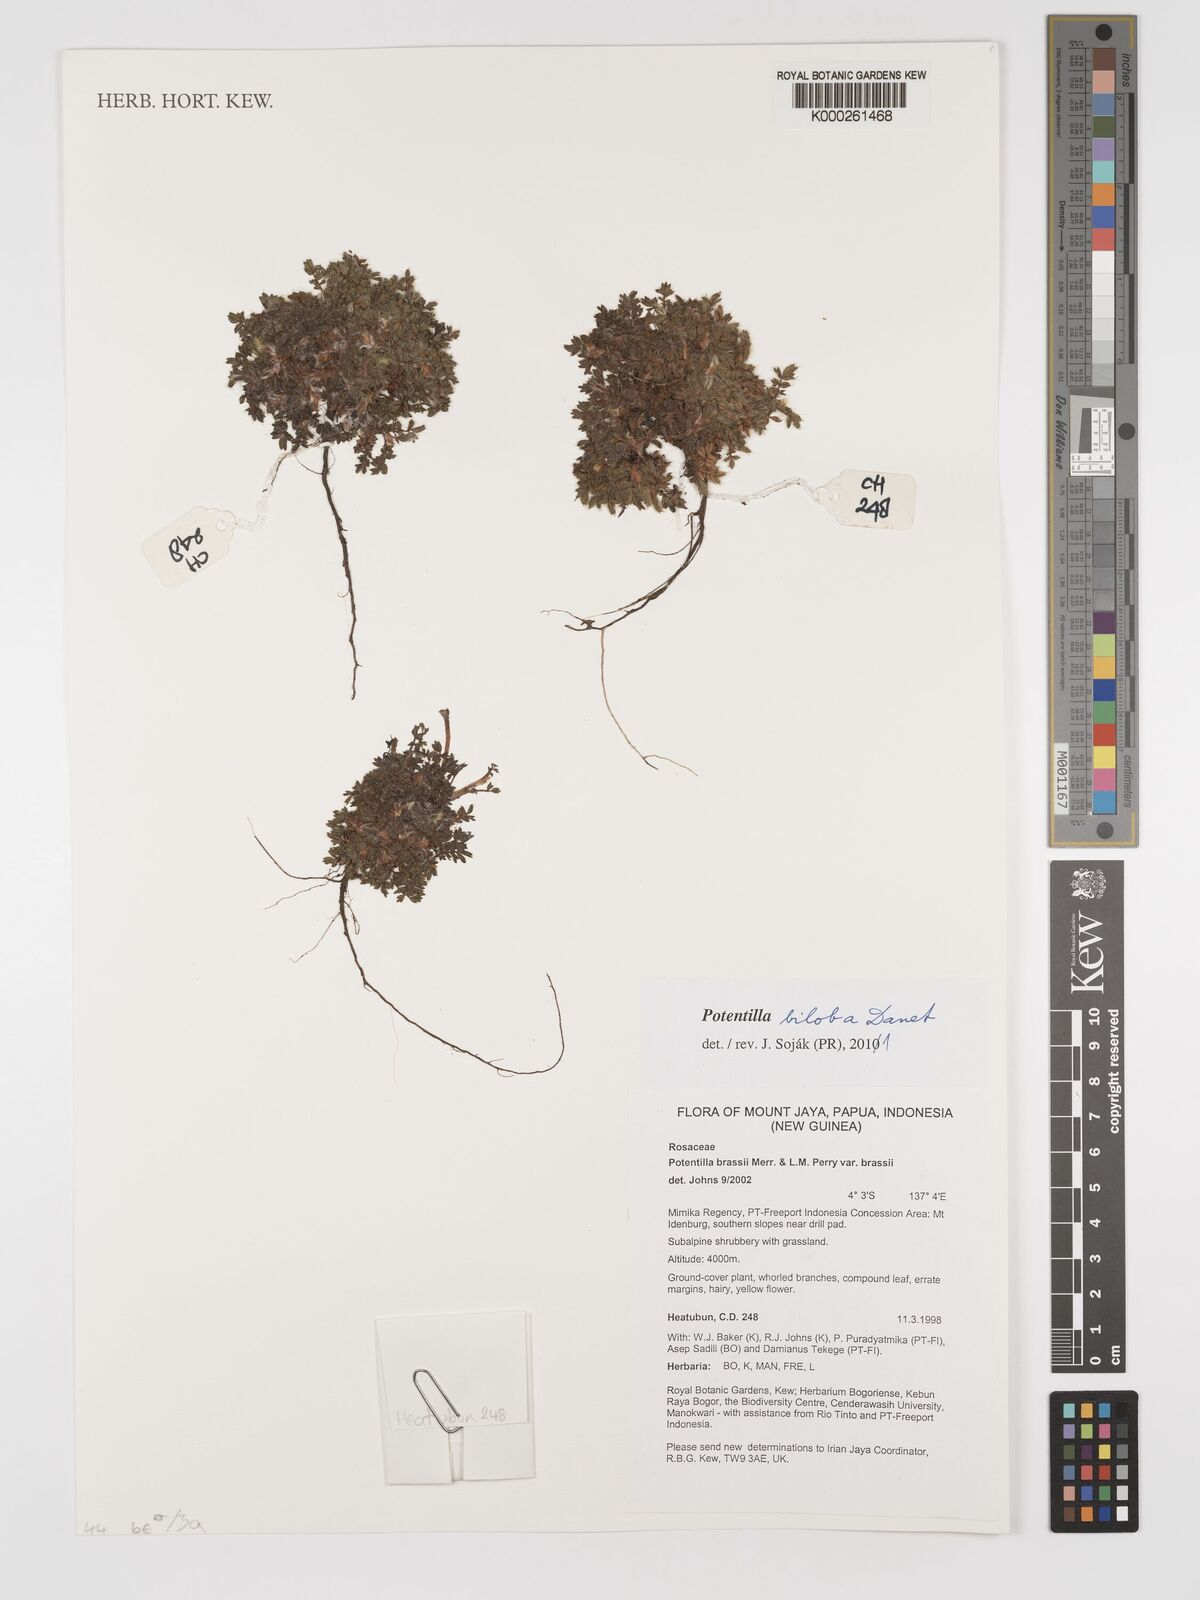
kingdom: Plantae
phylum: Tracheophyta
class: Magnoliopsida
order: Rosales
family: Rosaceae
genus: Argentina
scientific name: Argentina biloba
